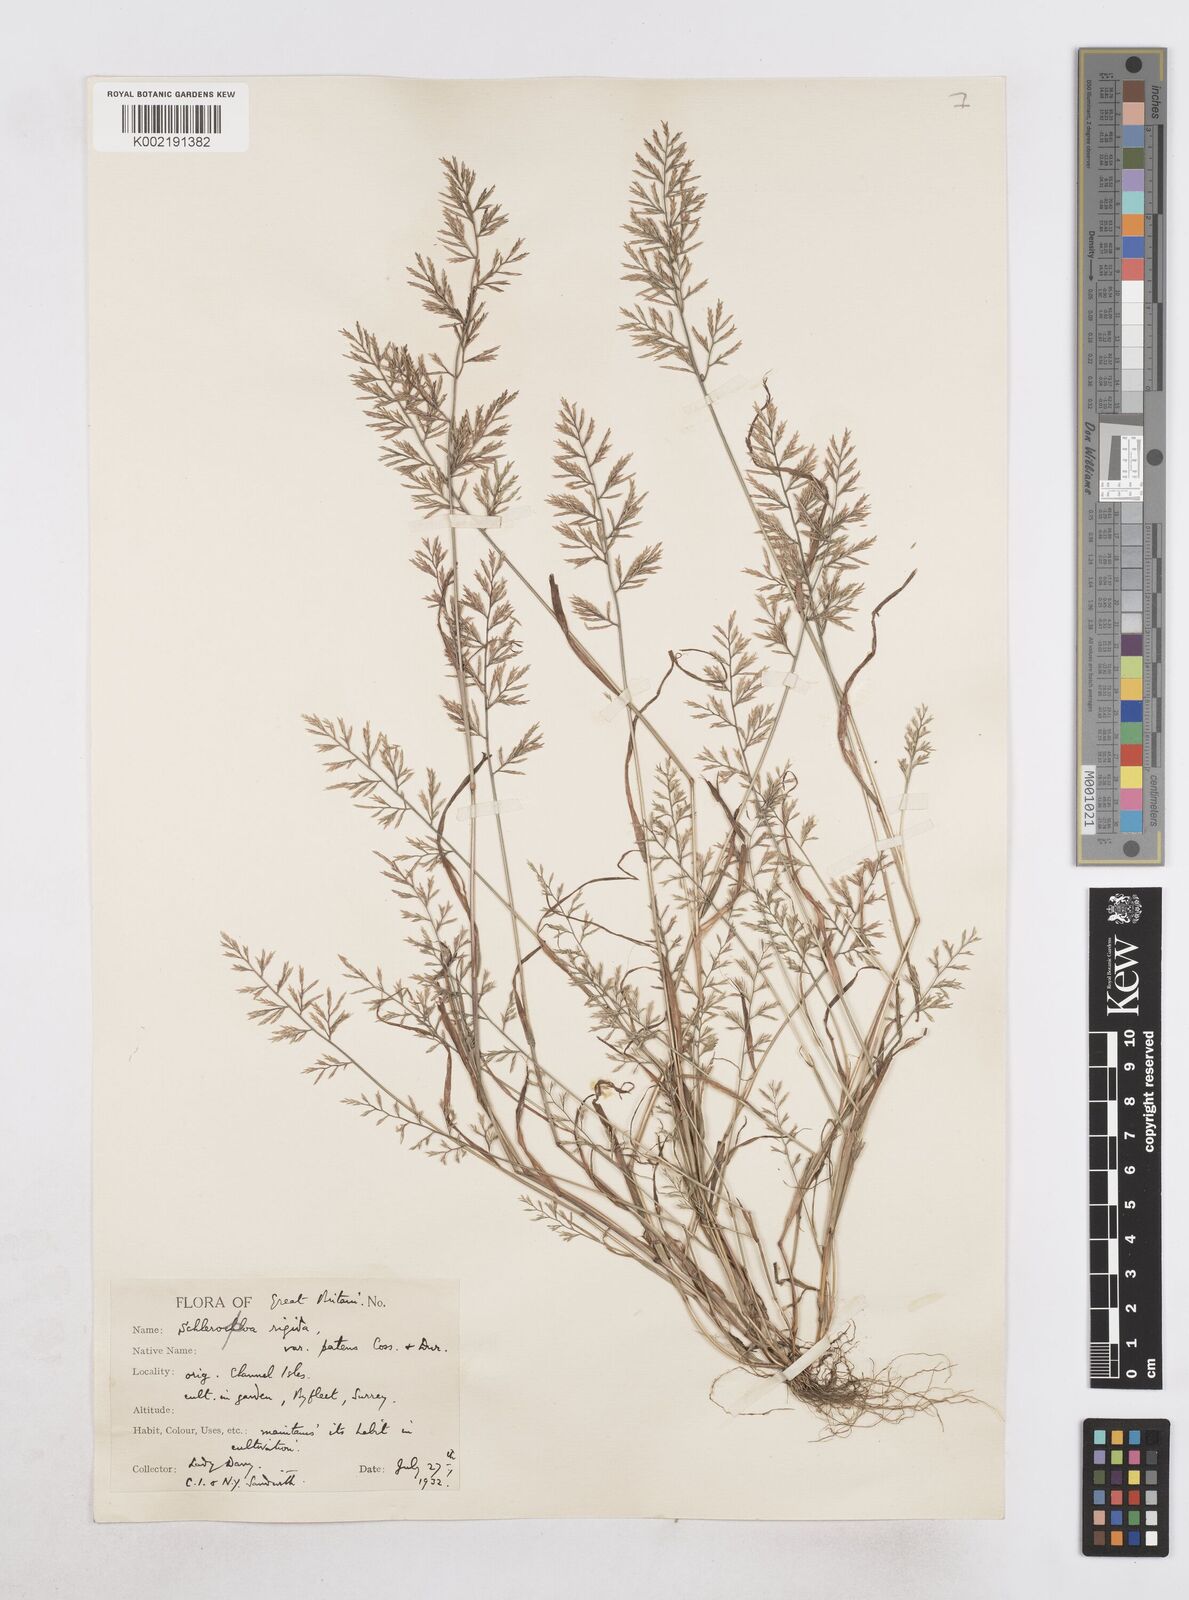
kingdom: Plantae
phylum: Tracheophyta
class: Liliopsida
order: Poales
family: Poaceae
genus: Catapodium
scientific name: Catapodium rigidum
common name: Fern-grass
